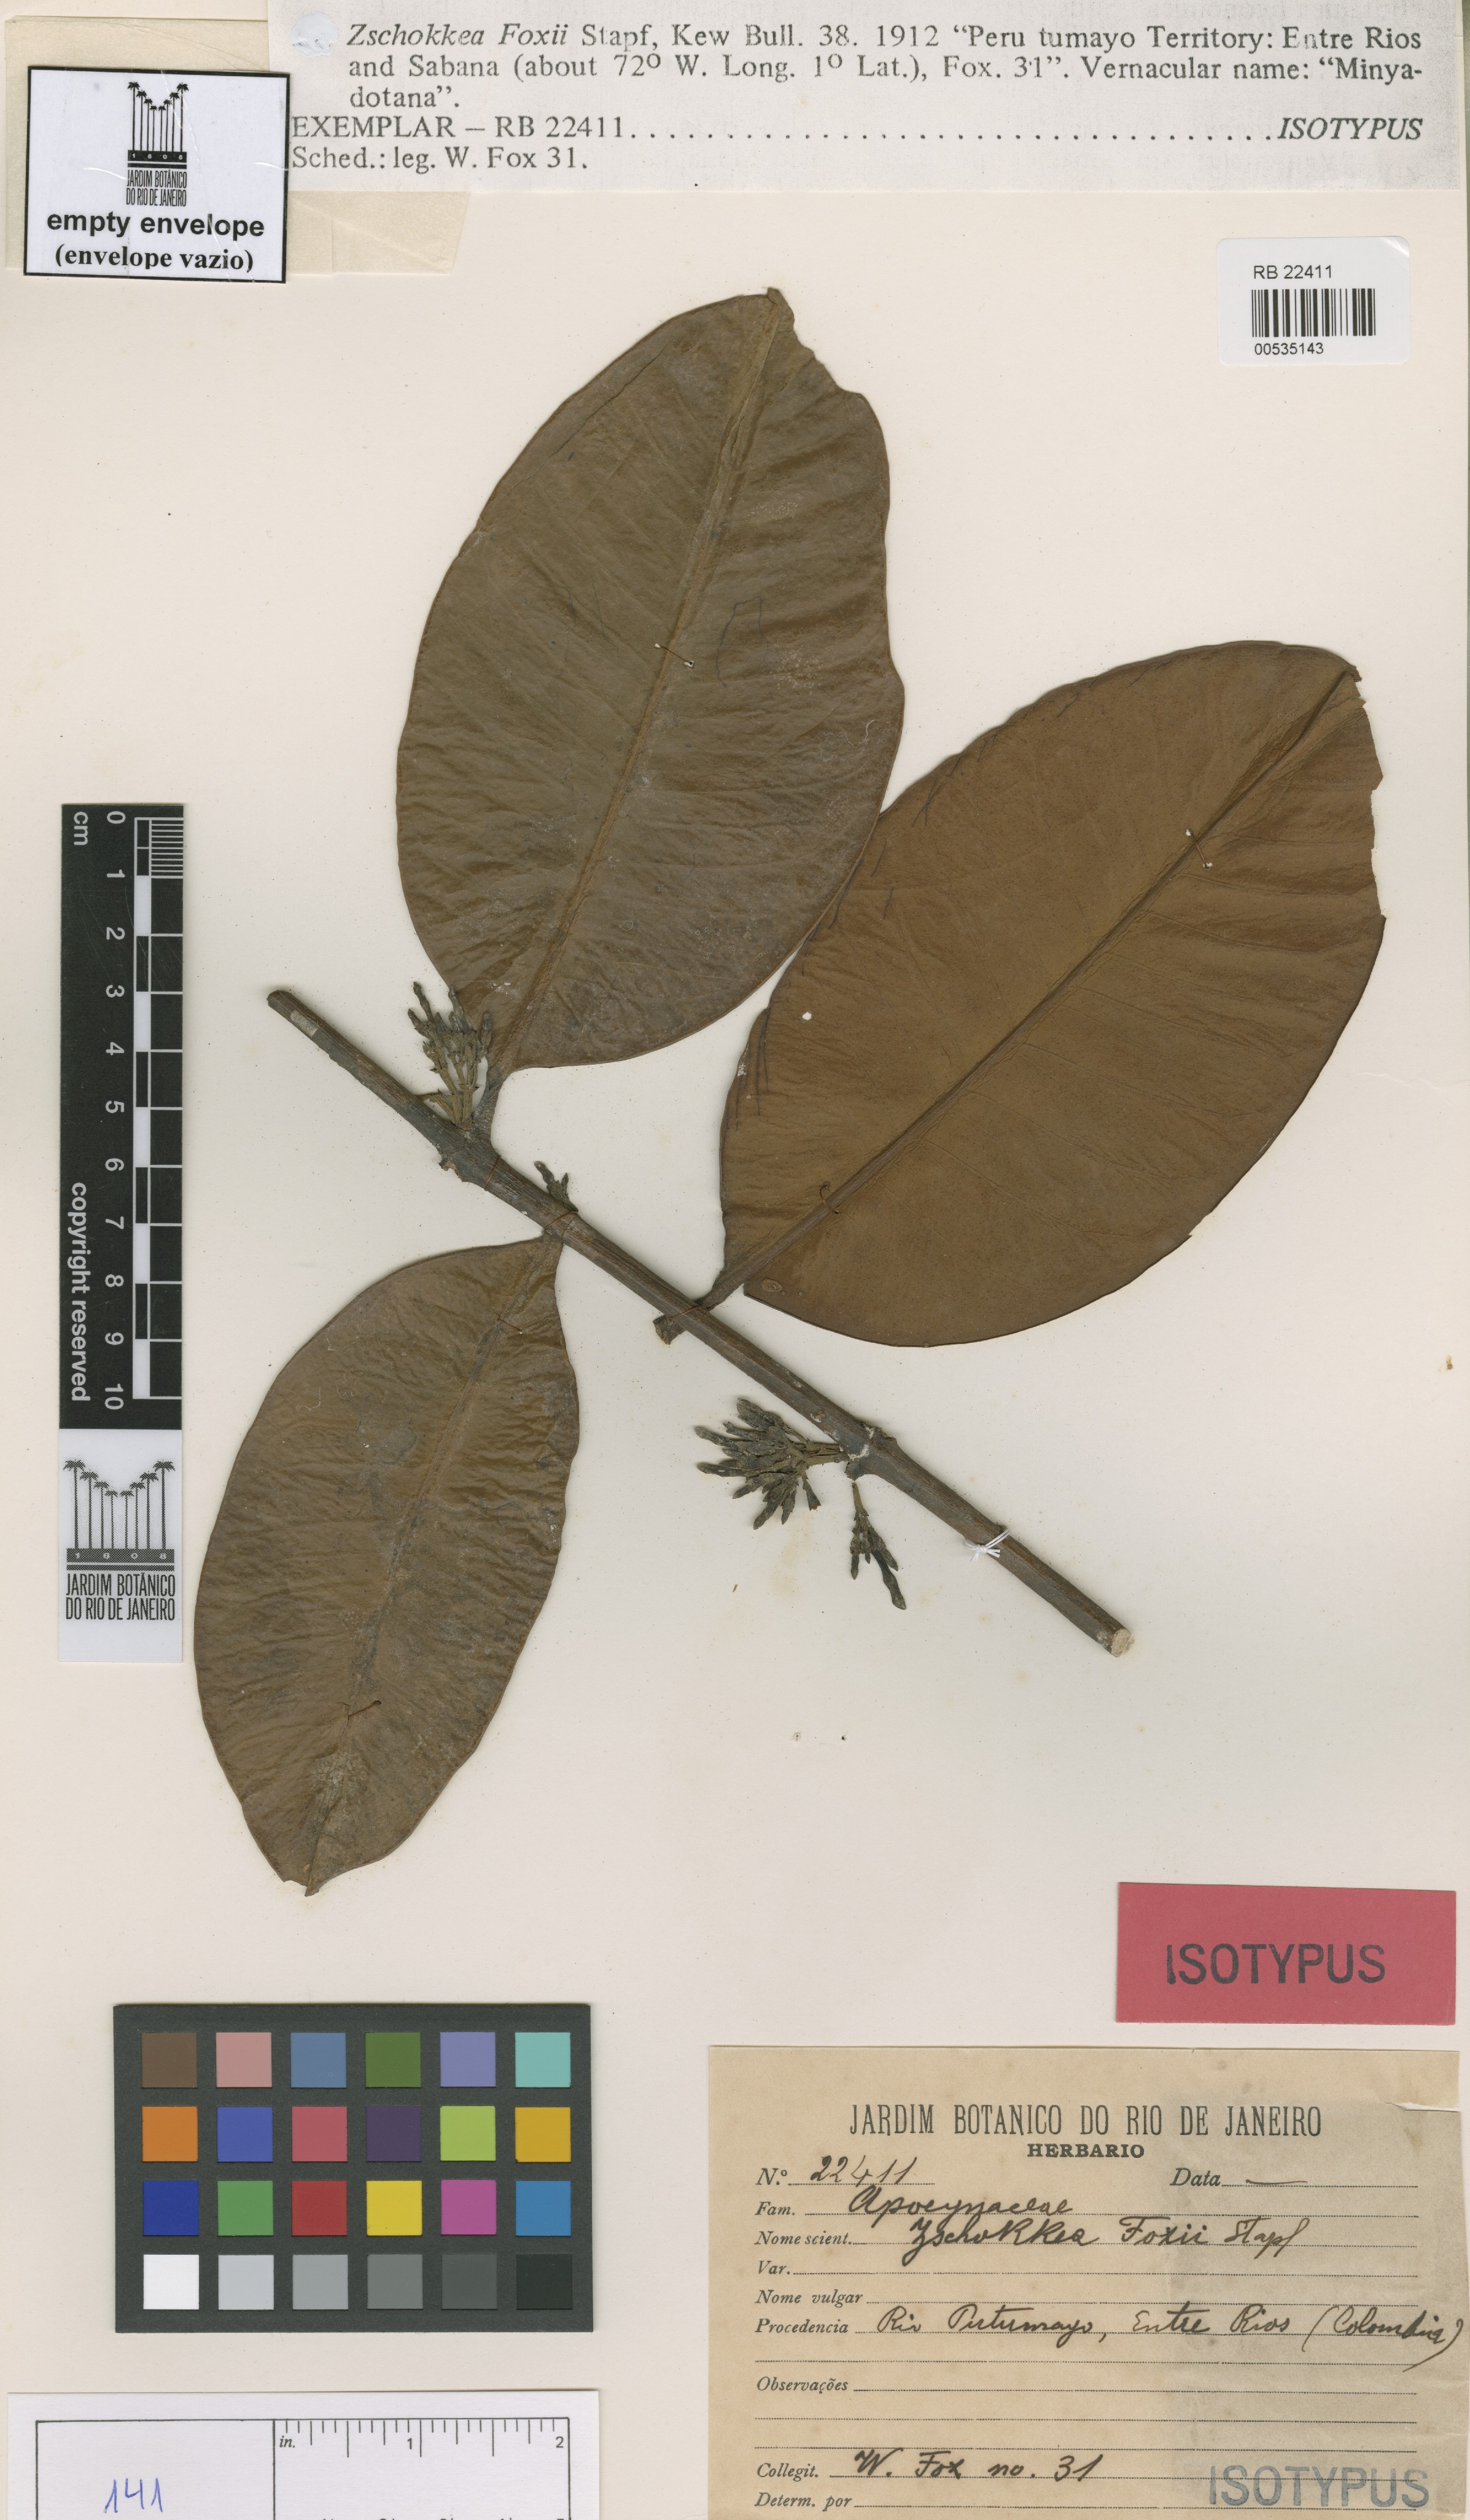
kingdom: Plantae
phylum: Tracheophyta
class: Magnoliopsida
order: Gentianales
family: Apocynaceae
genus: Lacmellea
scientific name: Lacmellea foxii
